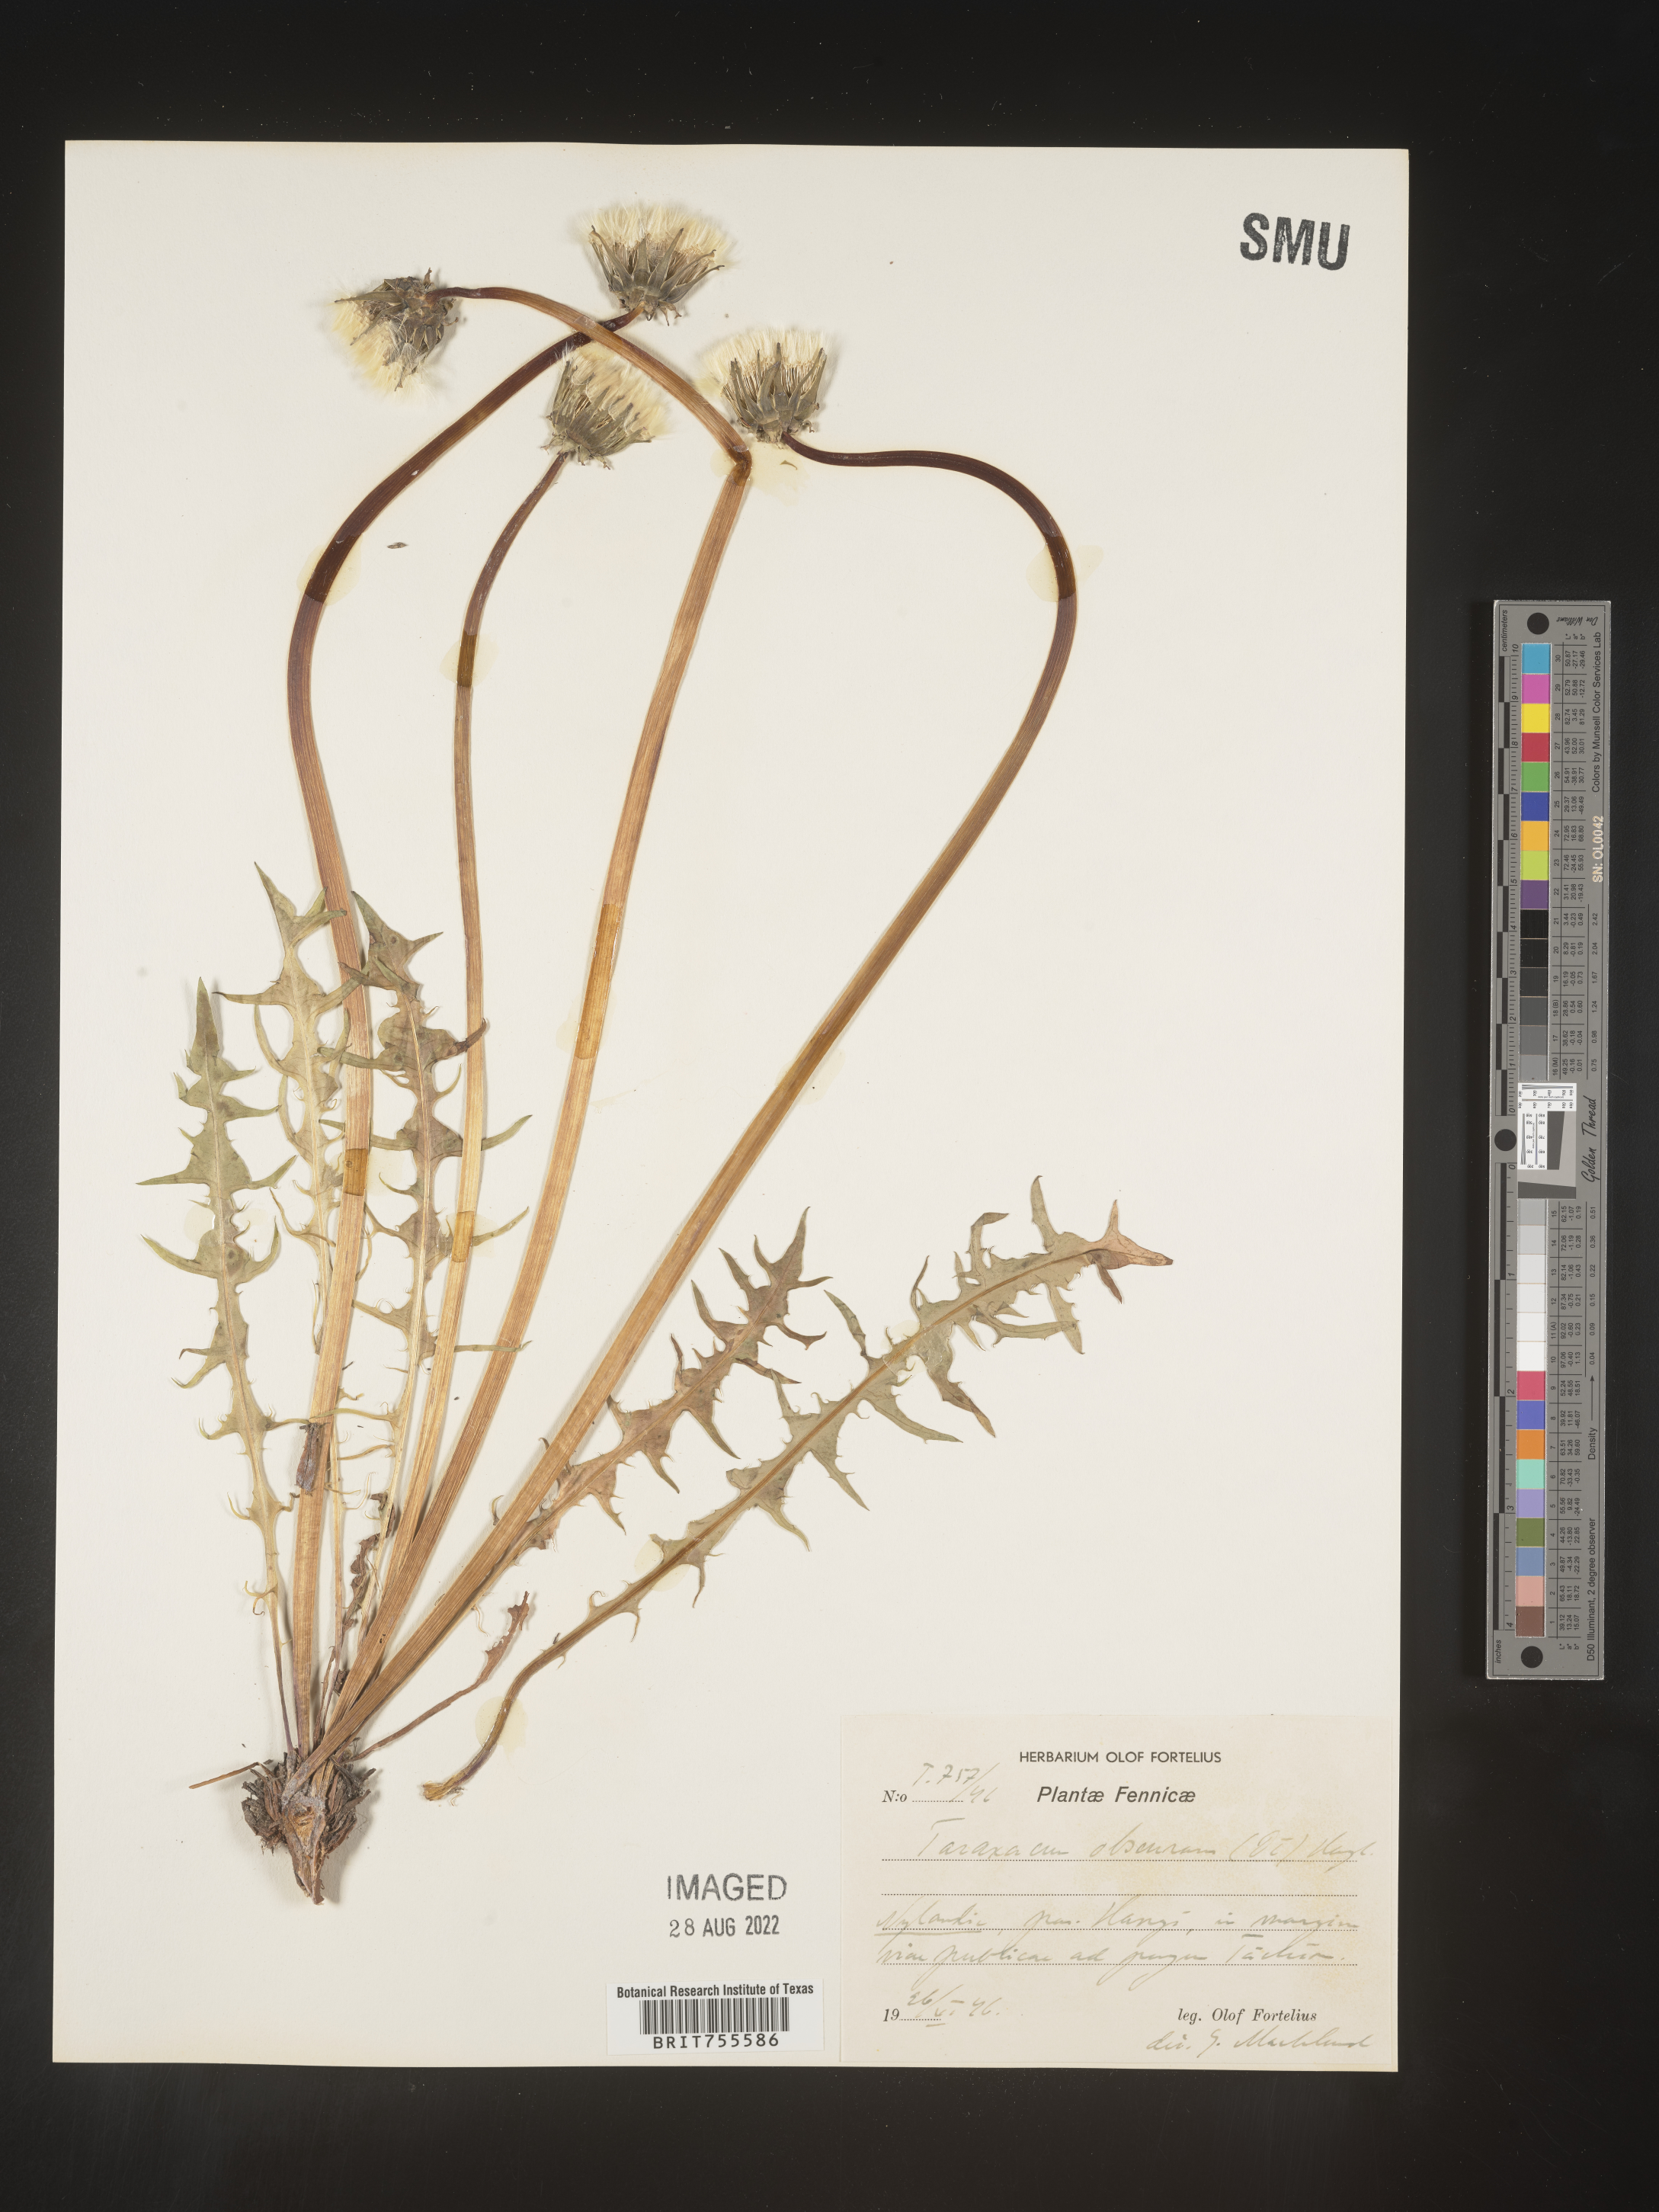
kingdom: Plantae
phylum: Tracheophyta
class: Magnoliopsida
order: Asterales
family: Asteraceae
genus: Taraxacum
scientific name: Taraxacum
